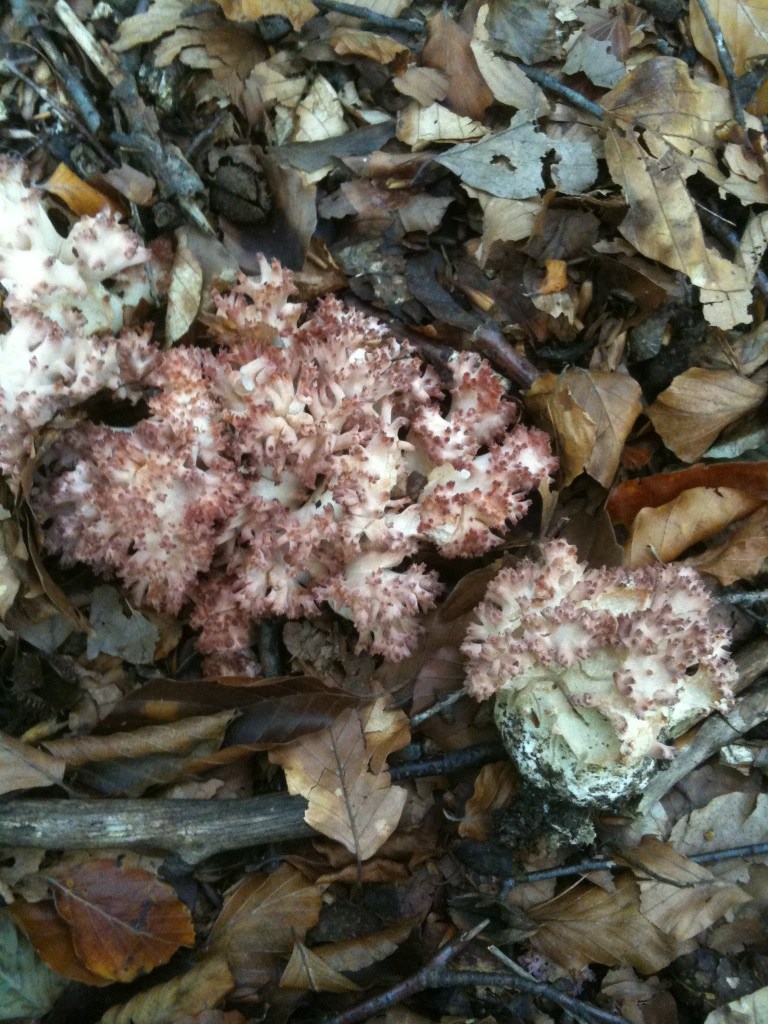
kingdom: Fungi
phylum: Basidiomycota
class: Agaricomycetes
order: Gomphales
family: Gomphaceae
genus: Ramaria
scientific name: Ramaria botrytis
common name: drue-koralsvamp
